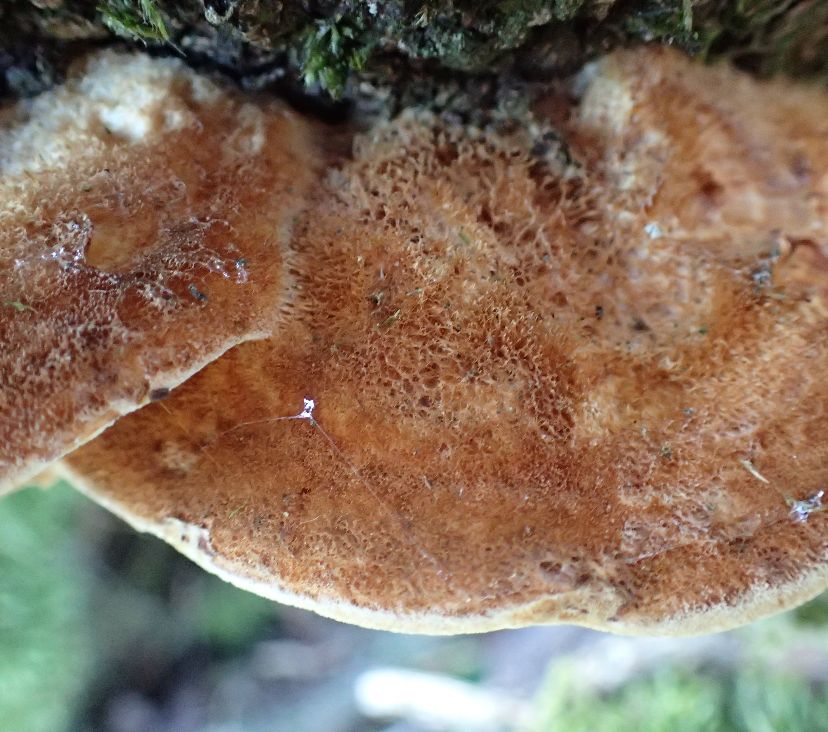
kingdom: Fungi
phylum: Basidiomycota
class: Agaricomycetes
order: Hymenochaetales
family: Hymenochaetaceae
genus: Inocutis
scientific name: Inocutis rheades
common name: ræve-spejlporesvamp
